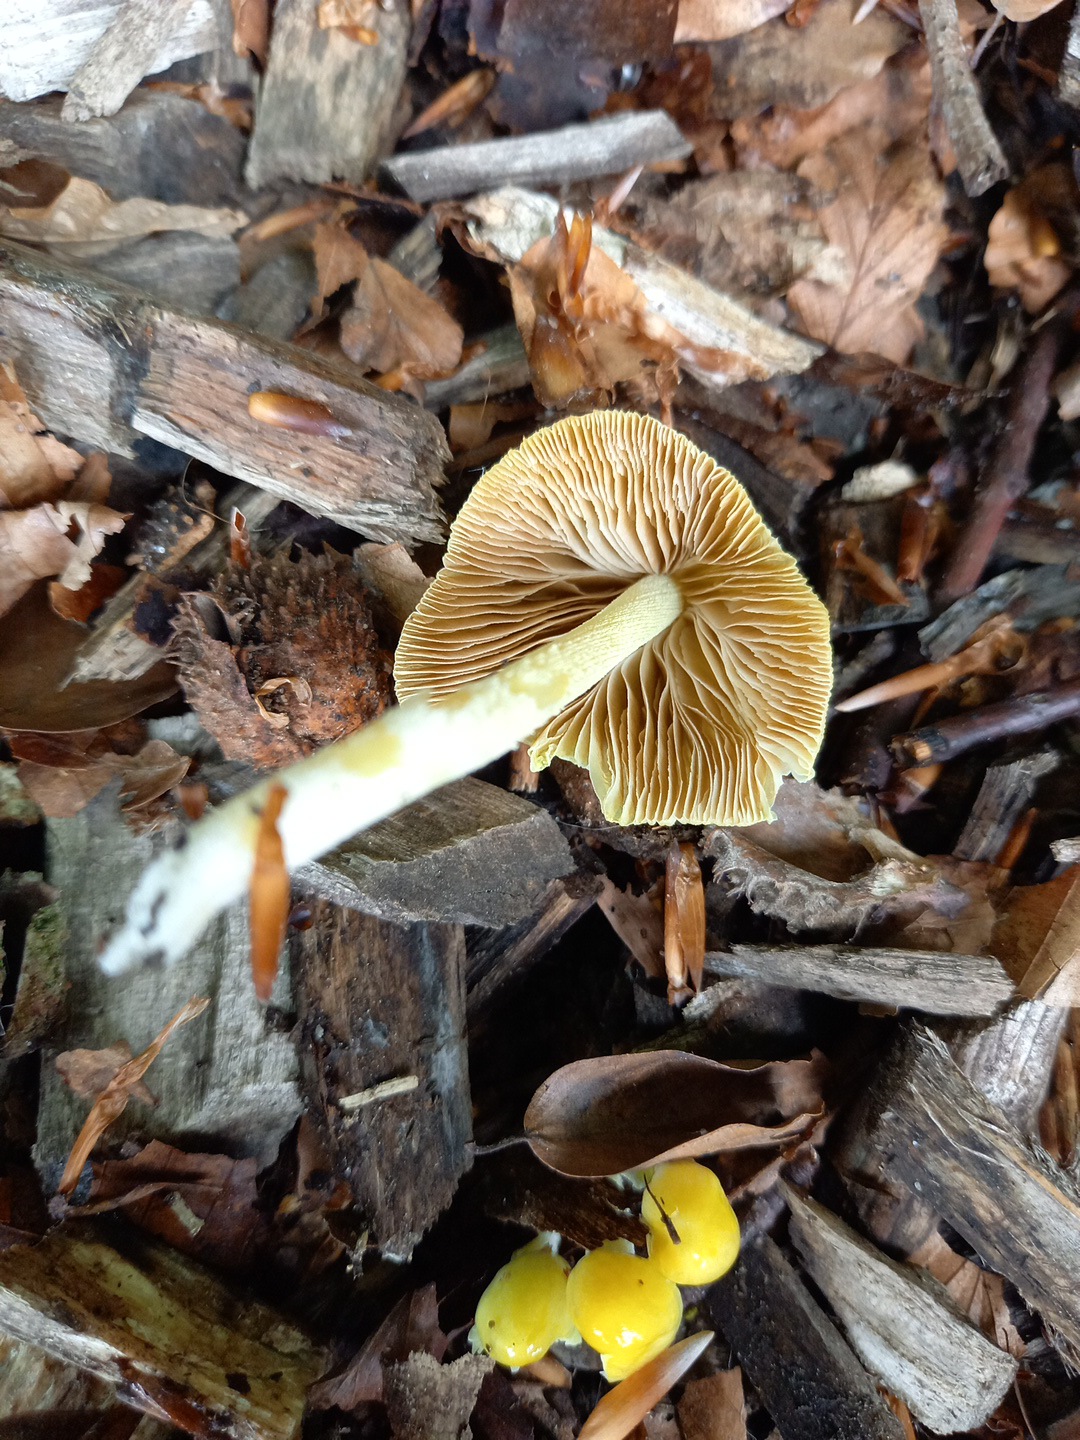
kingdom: Fungi
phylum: Basidiomycota
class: Agaricomycetes
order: Agaricales
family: Bolbitiaceae
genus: Bolbitius
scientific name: Bolbitius titubans
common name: almindelig gulhat
